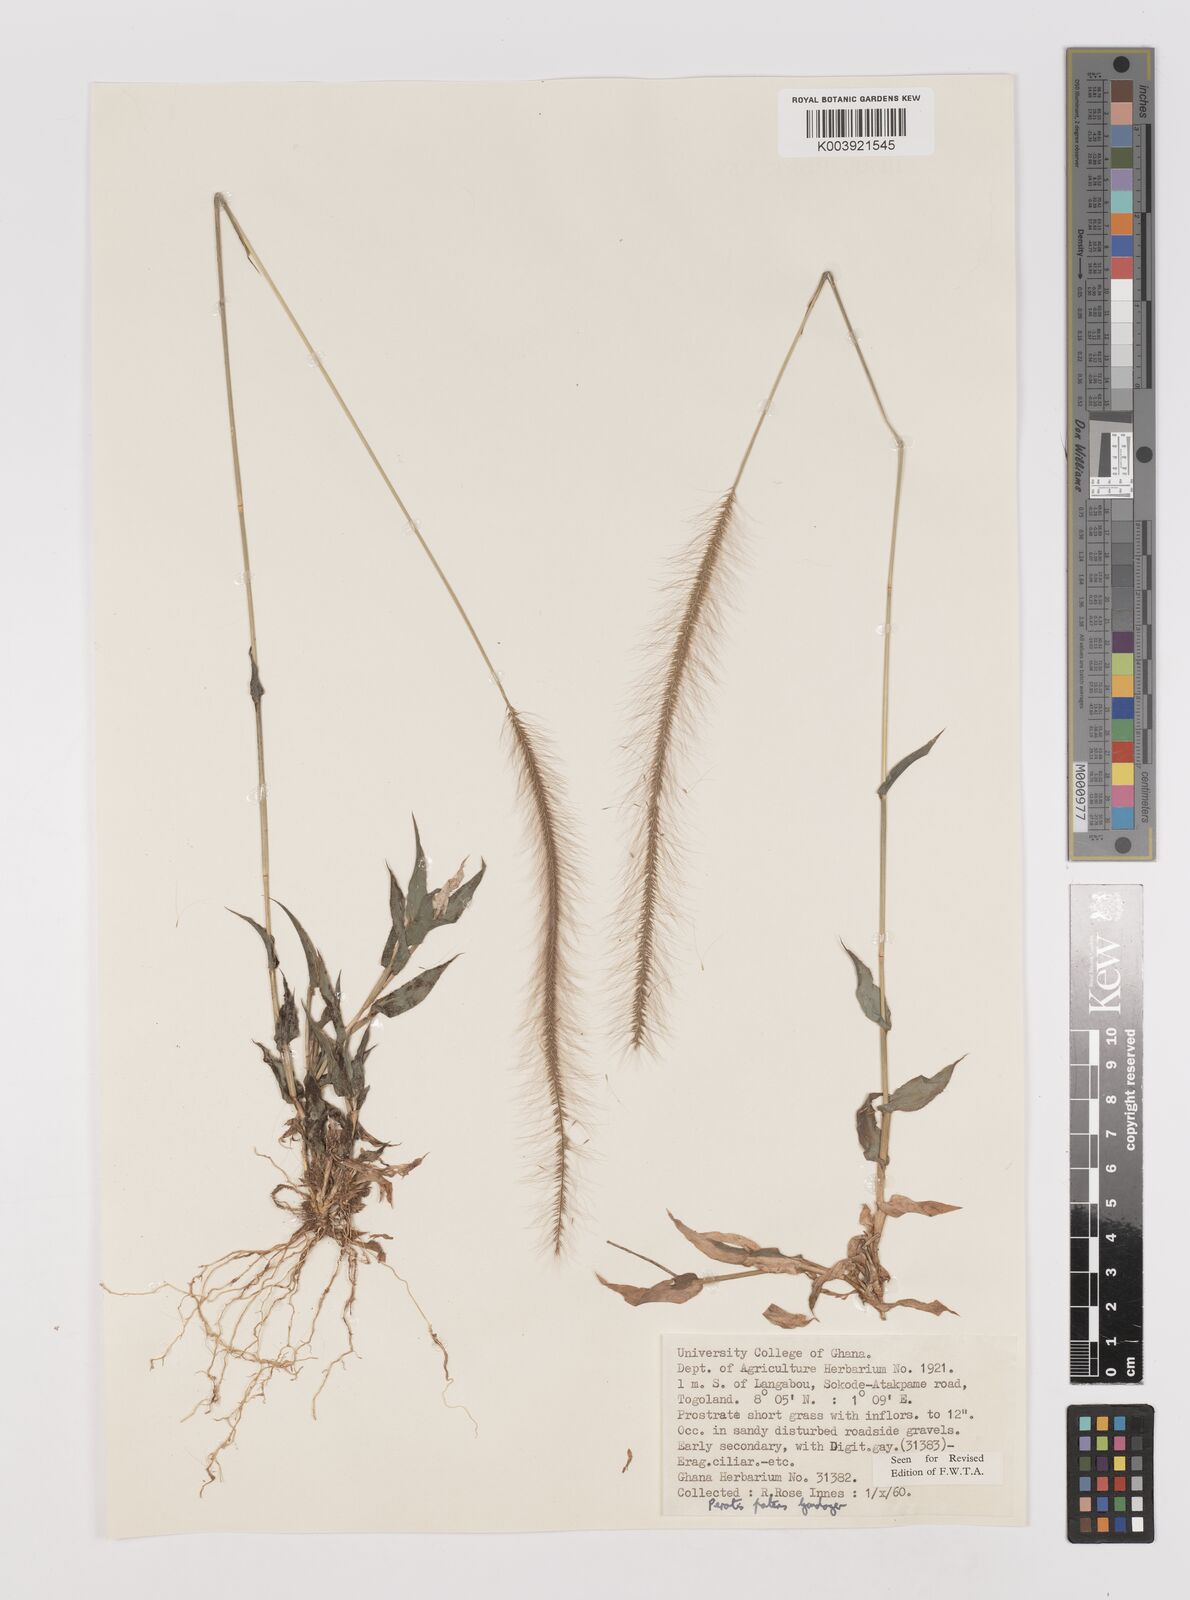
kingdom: Plantae
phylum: Tracheophyta
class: Liliopsida
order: Poales
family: Poaceae
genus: Perotis
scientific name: Perotis patens
